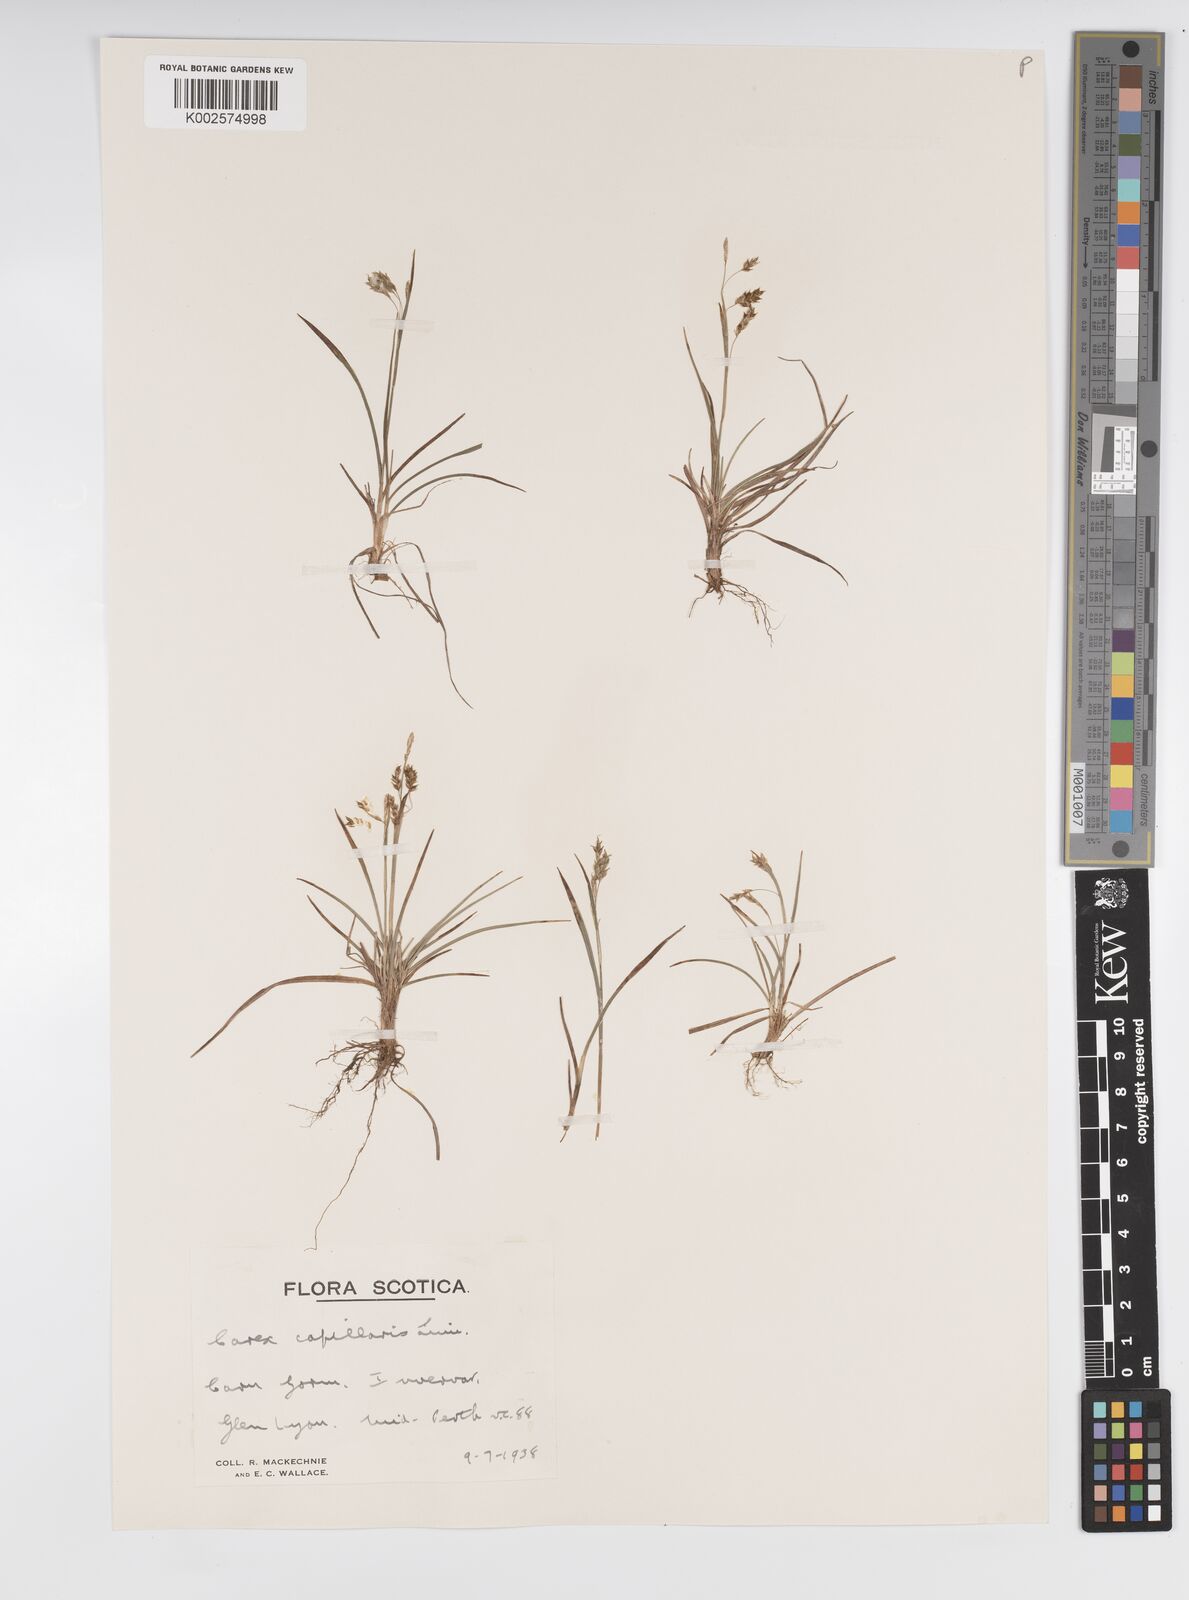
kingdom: Plantae
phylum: Tracheophyta
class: Liliopsida
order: Poales
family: Cyperaceae
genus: Carex
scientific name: Carex capillaris
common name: Hair sedge
